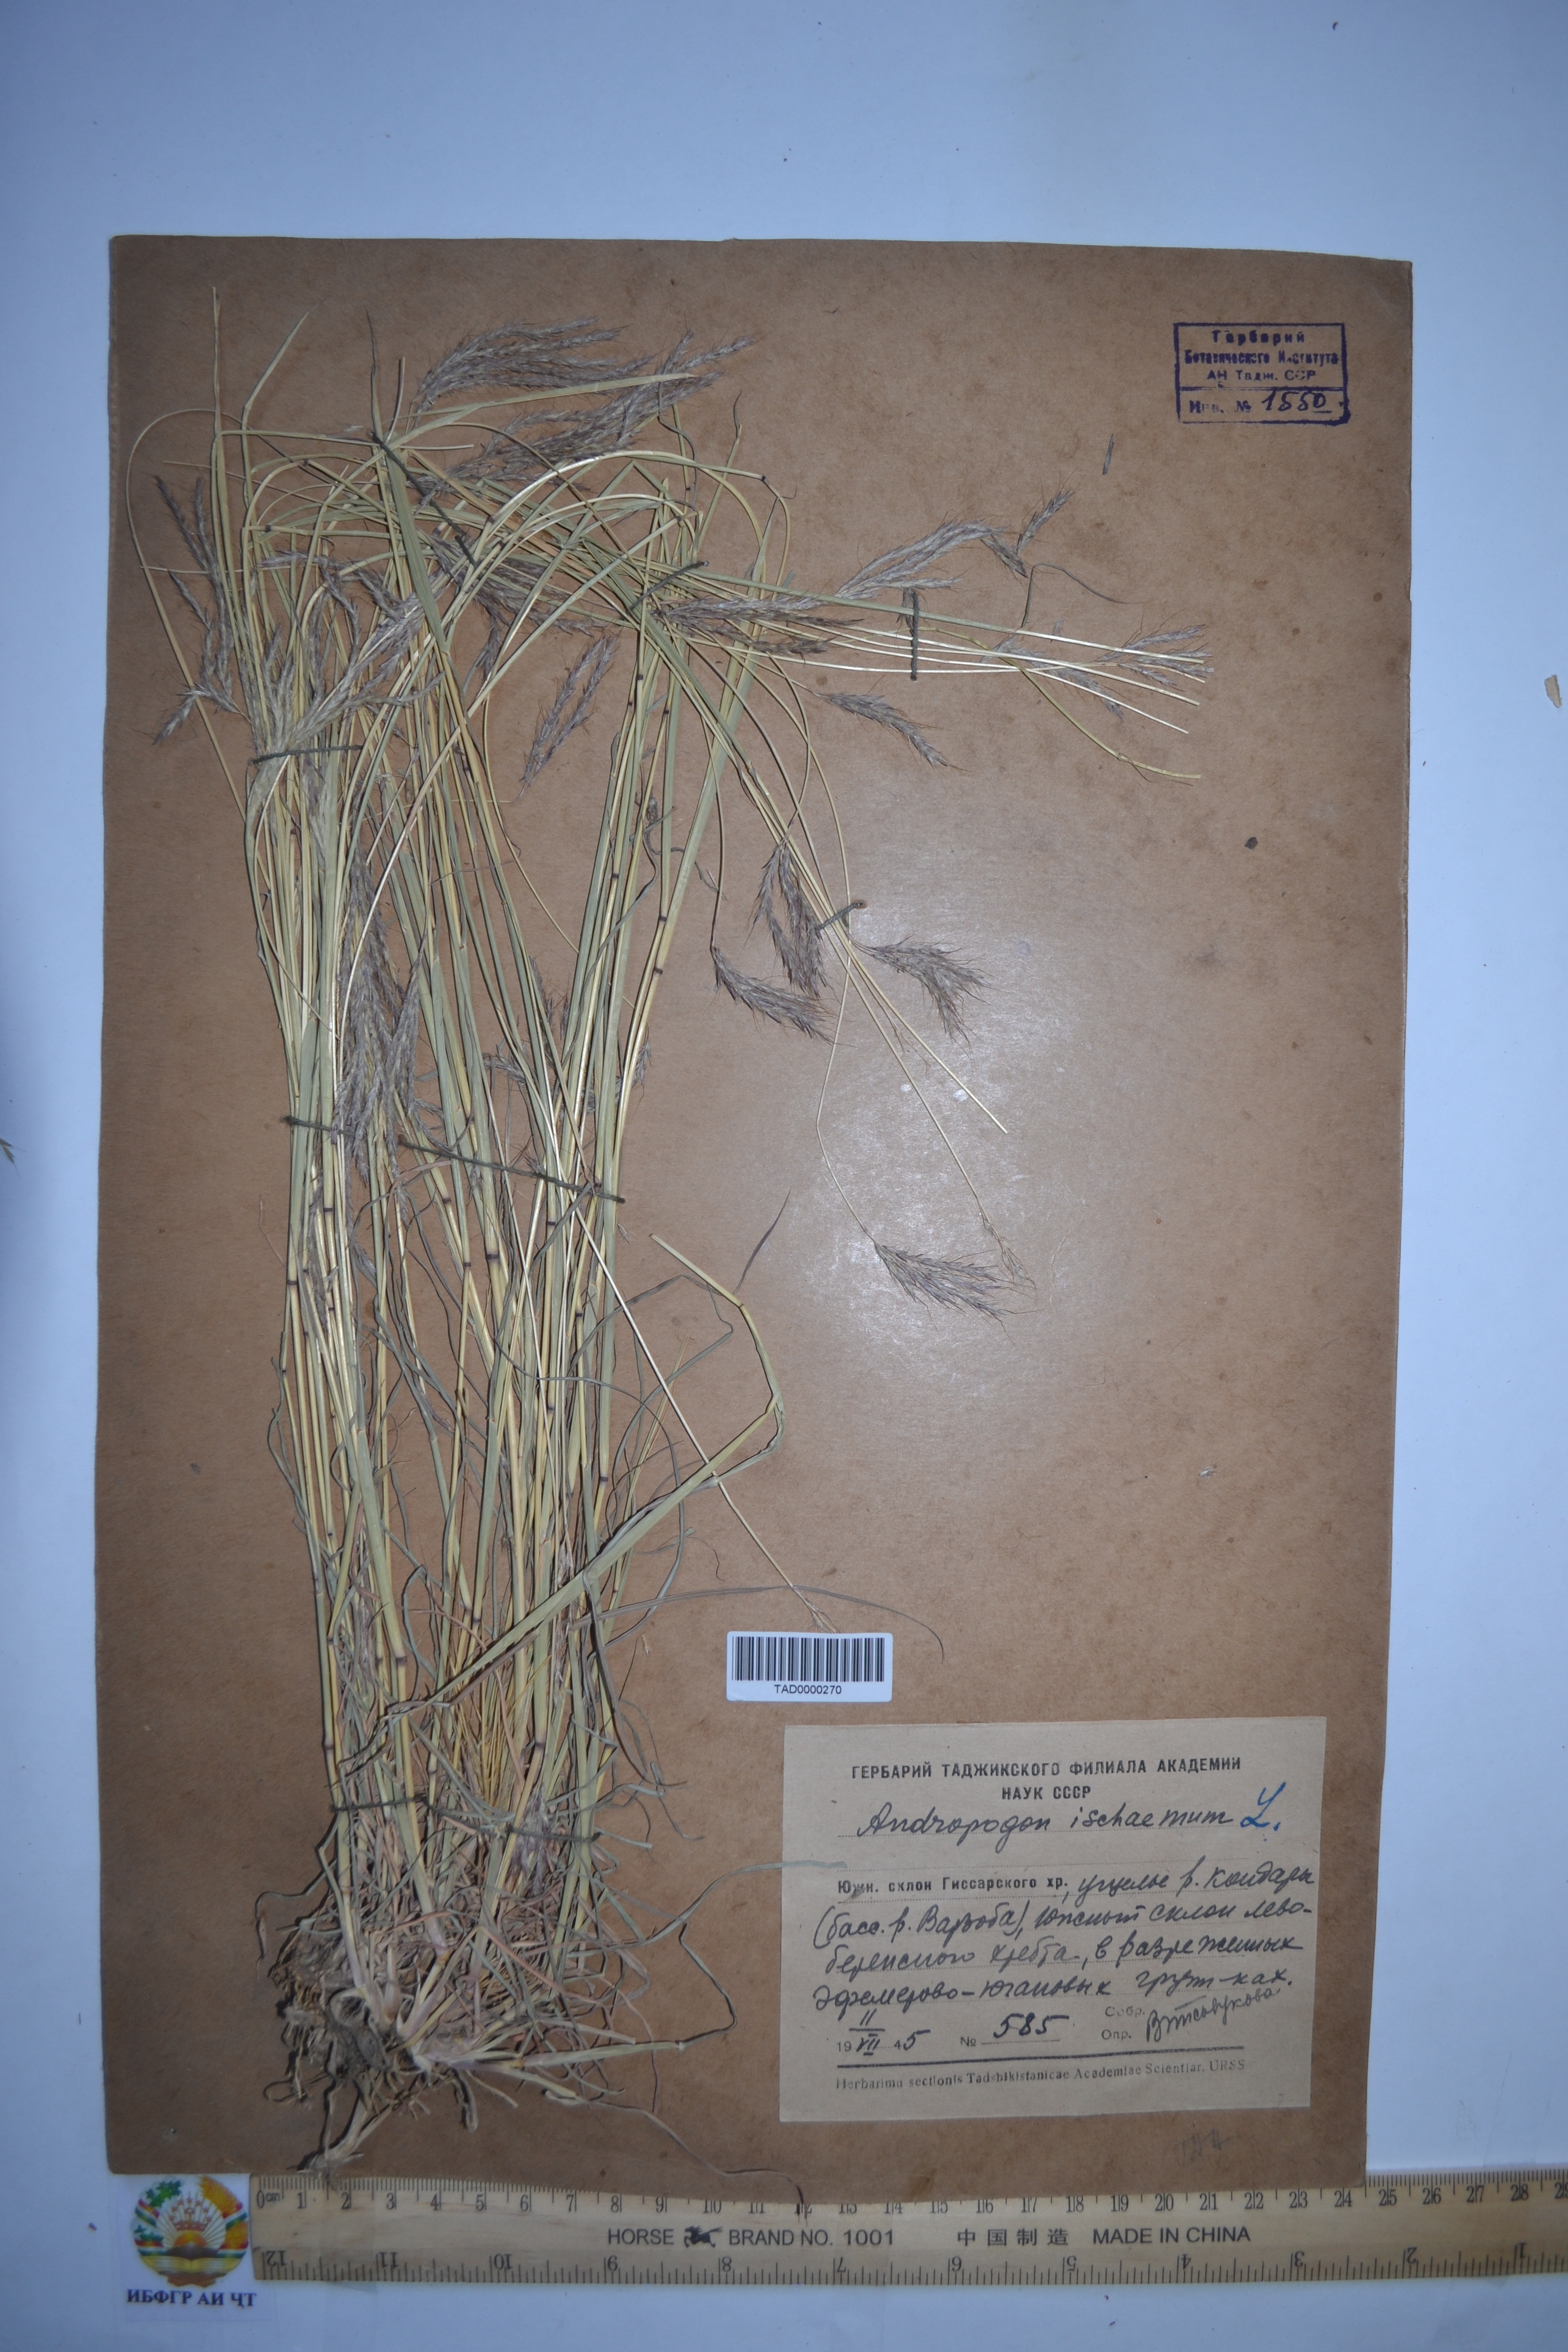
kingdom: Plantae
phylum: Tracheophyta
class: Liliopsida
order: Poales
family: Poaceae
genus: Bothriochloa
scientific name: Bothriochloa ischaemum
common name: Yellow bluestem
